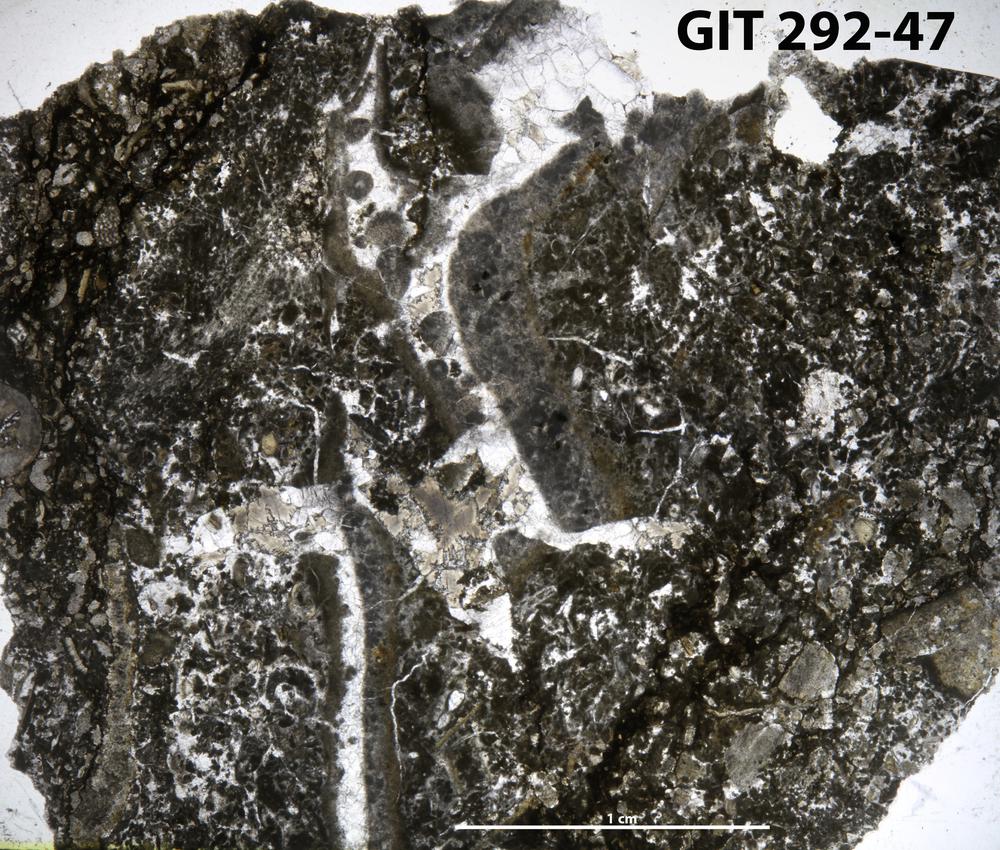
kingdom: Animalia
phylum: Porifera
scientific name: Porifera
